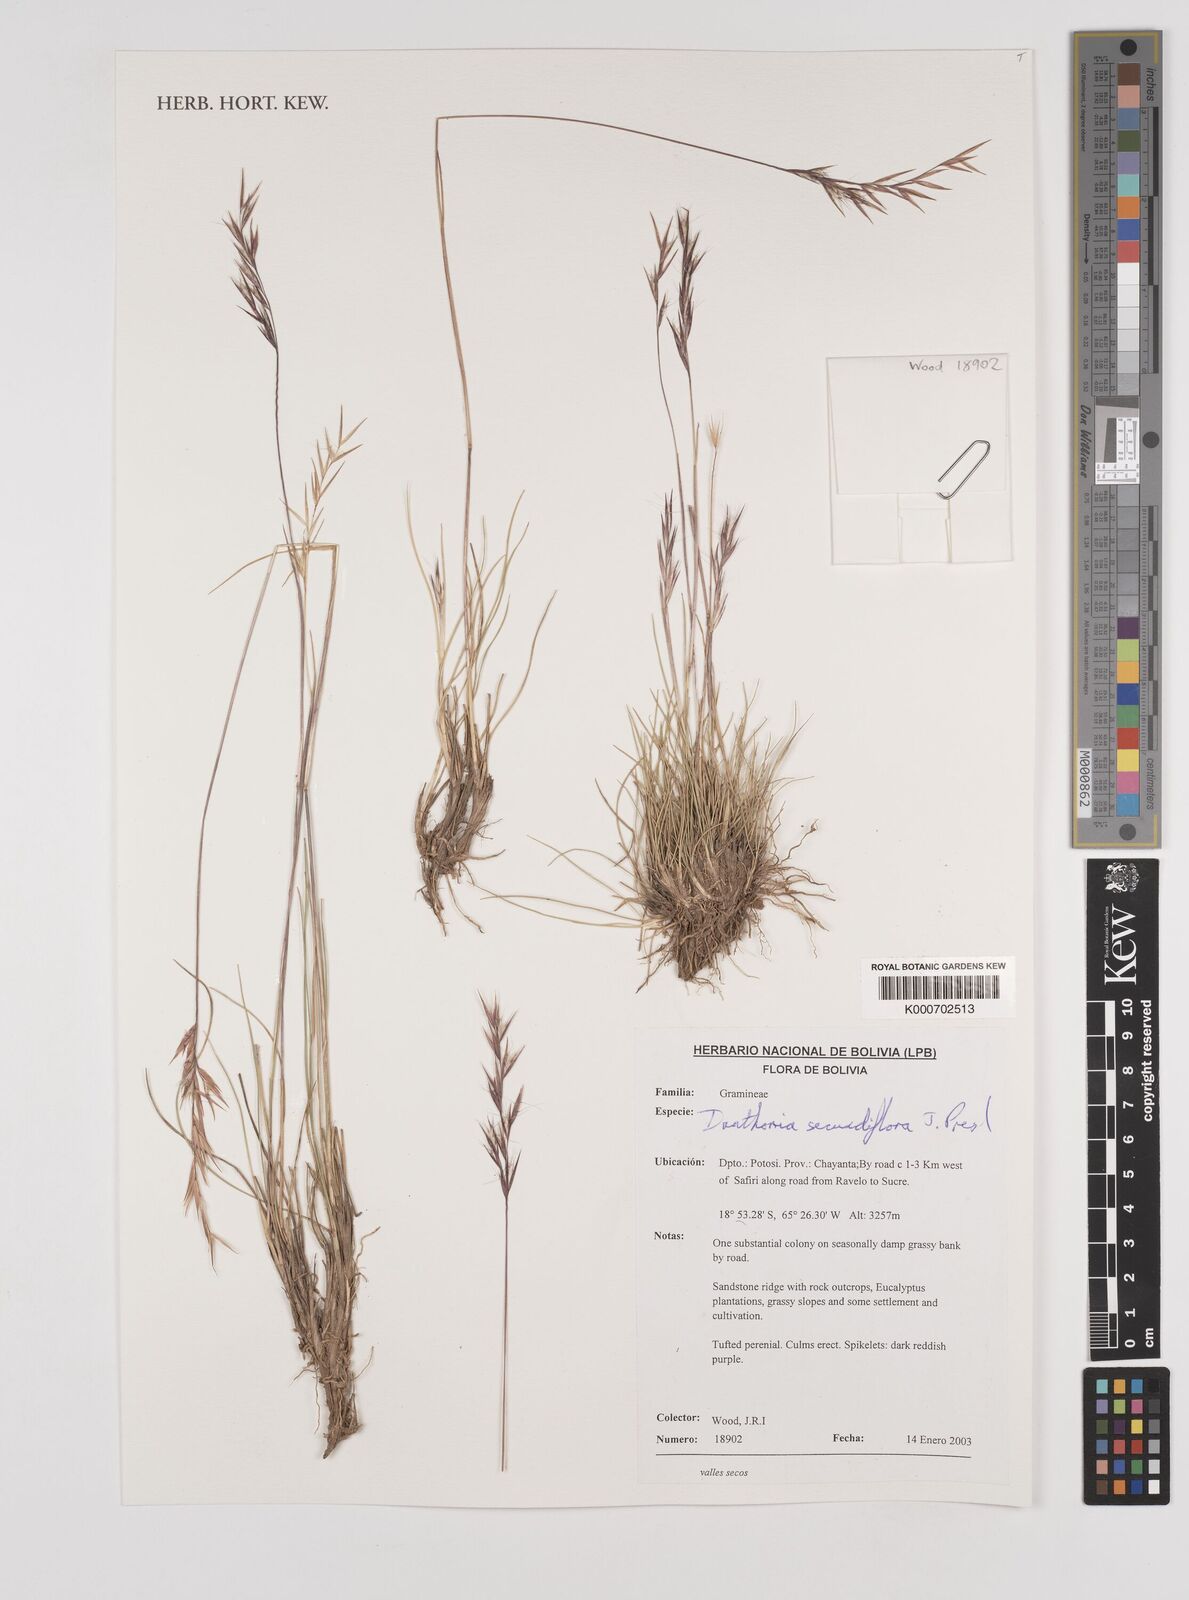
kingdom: Plantae
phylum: Tracheophyta
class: Liliopsida
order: Poales
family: Poaceae
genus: Danthonia
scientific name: Danthonia secundiflora
